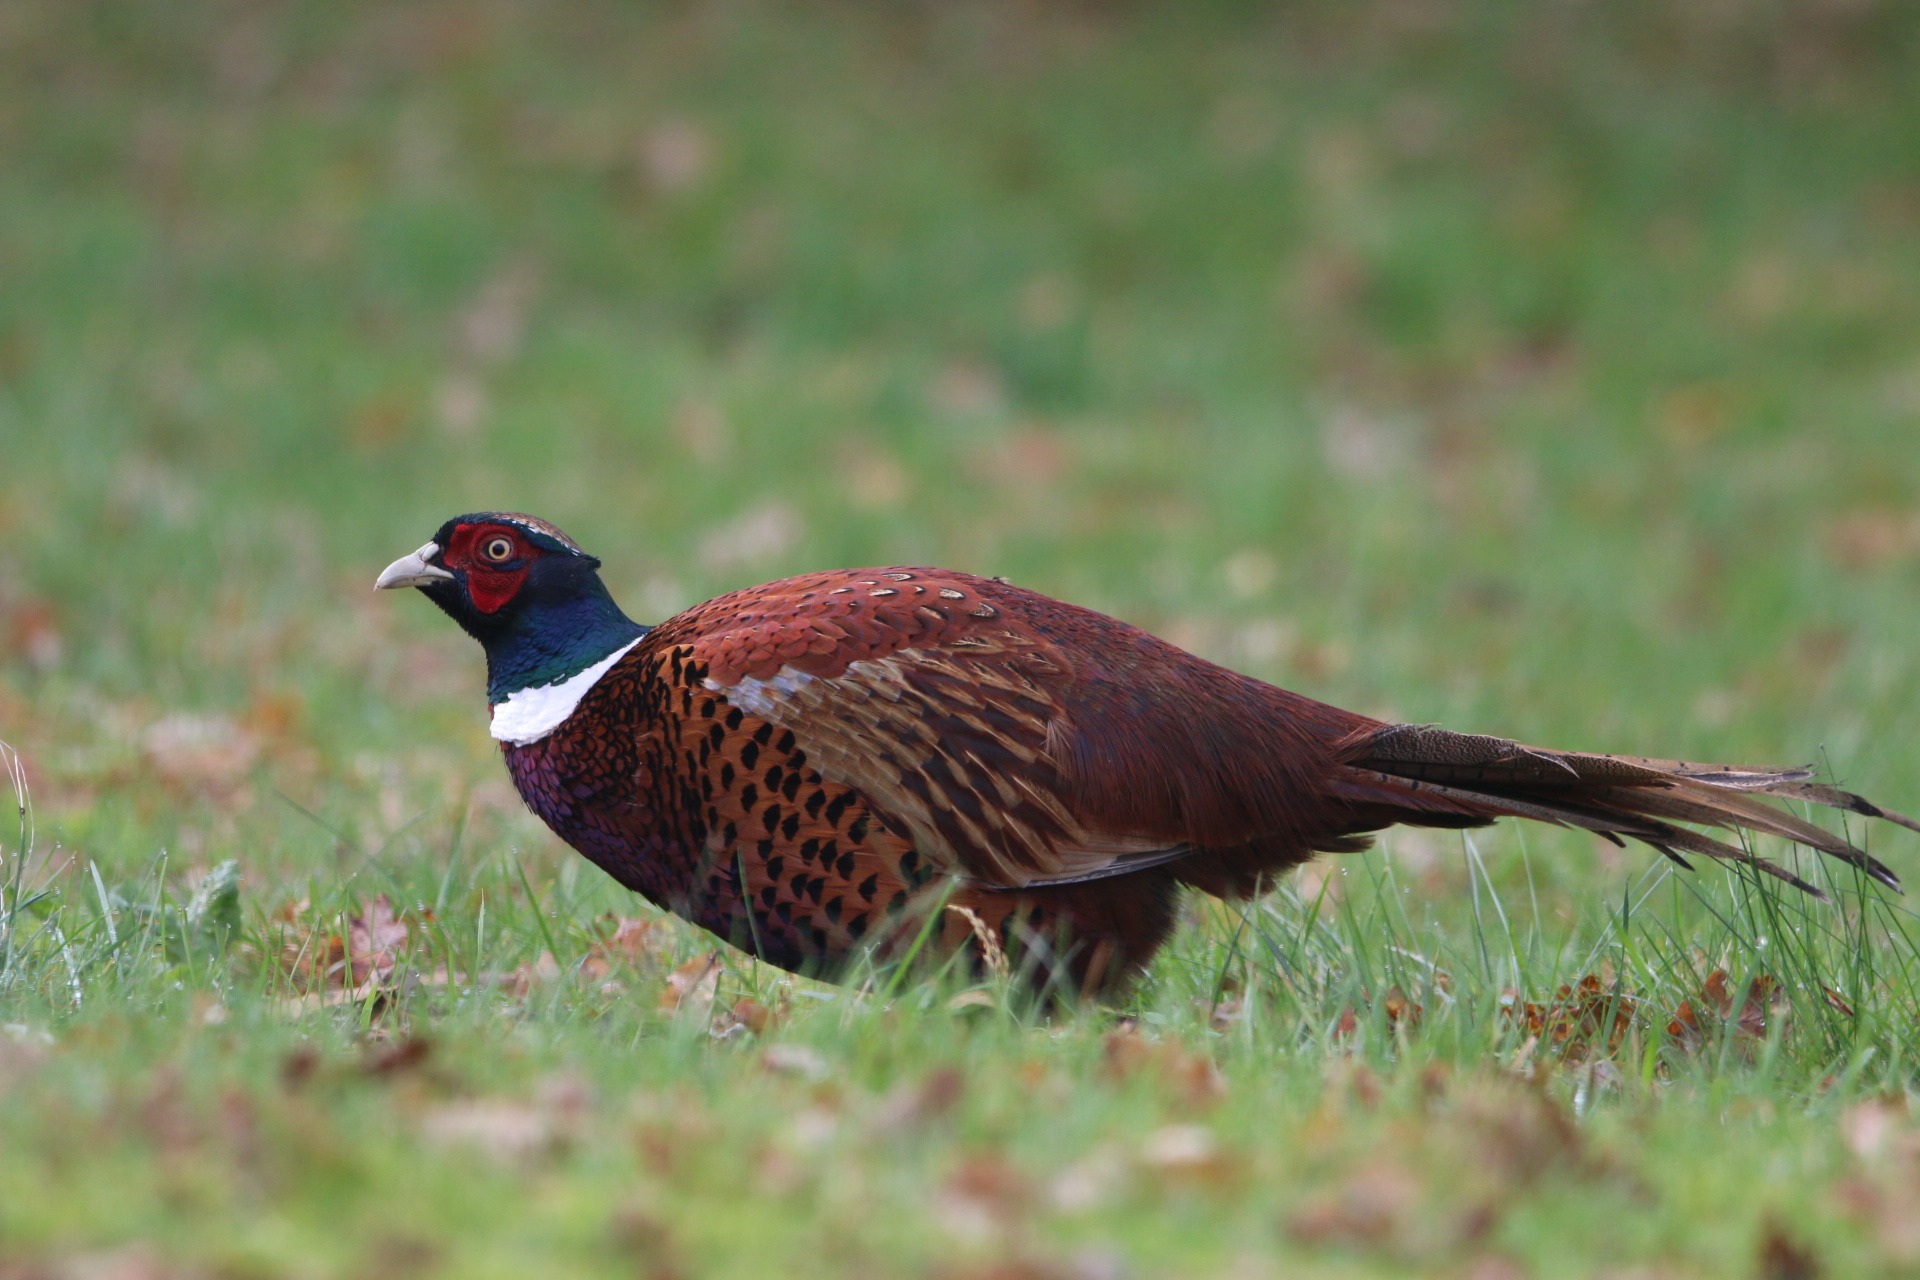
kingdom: Animalia
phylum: Chordata
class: Aves
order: Galliformes
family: Phasianidae
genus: Phasianus
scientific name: Phasianus colchicus
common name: Fasan
